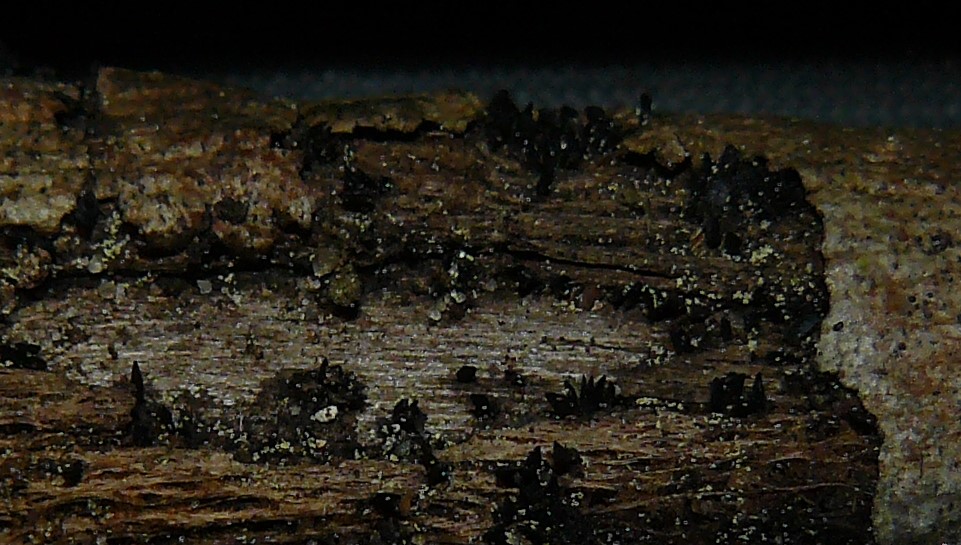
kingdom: Fungi
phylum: Ascomycota
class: Eurotiomycetes
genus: Glyphium
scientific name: Glyphium elatum
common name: kuløkse
